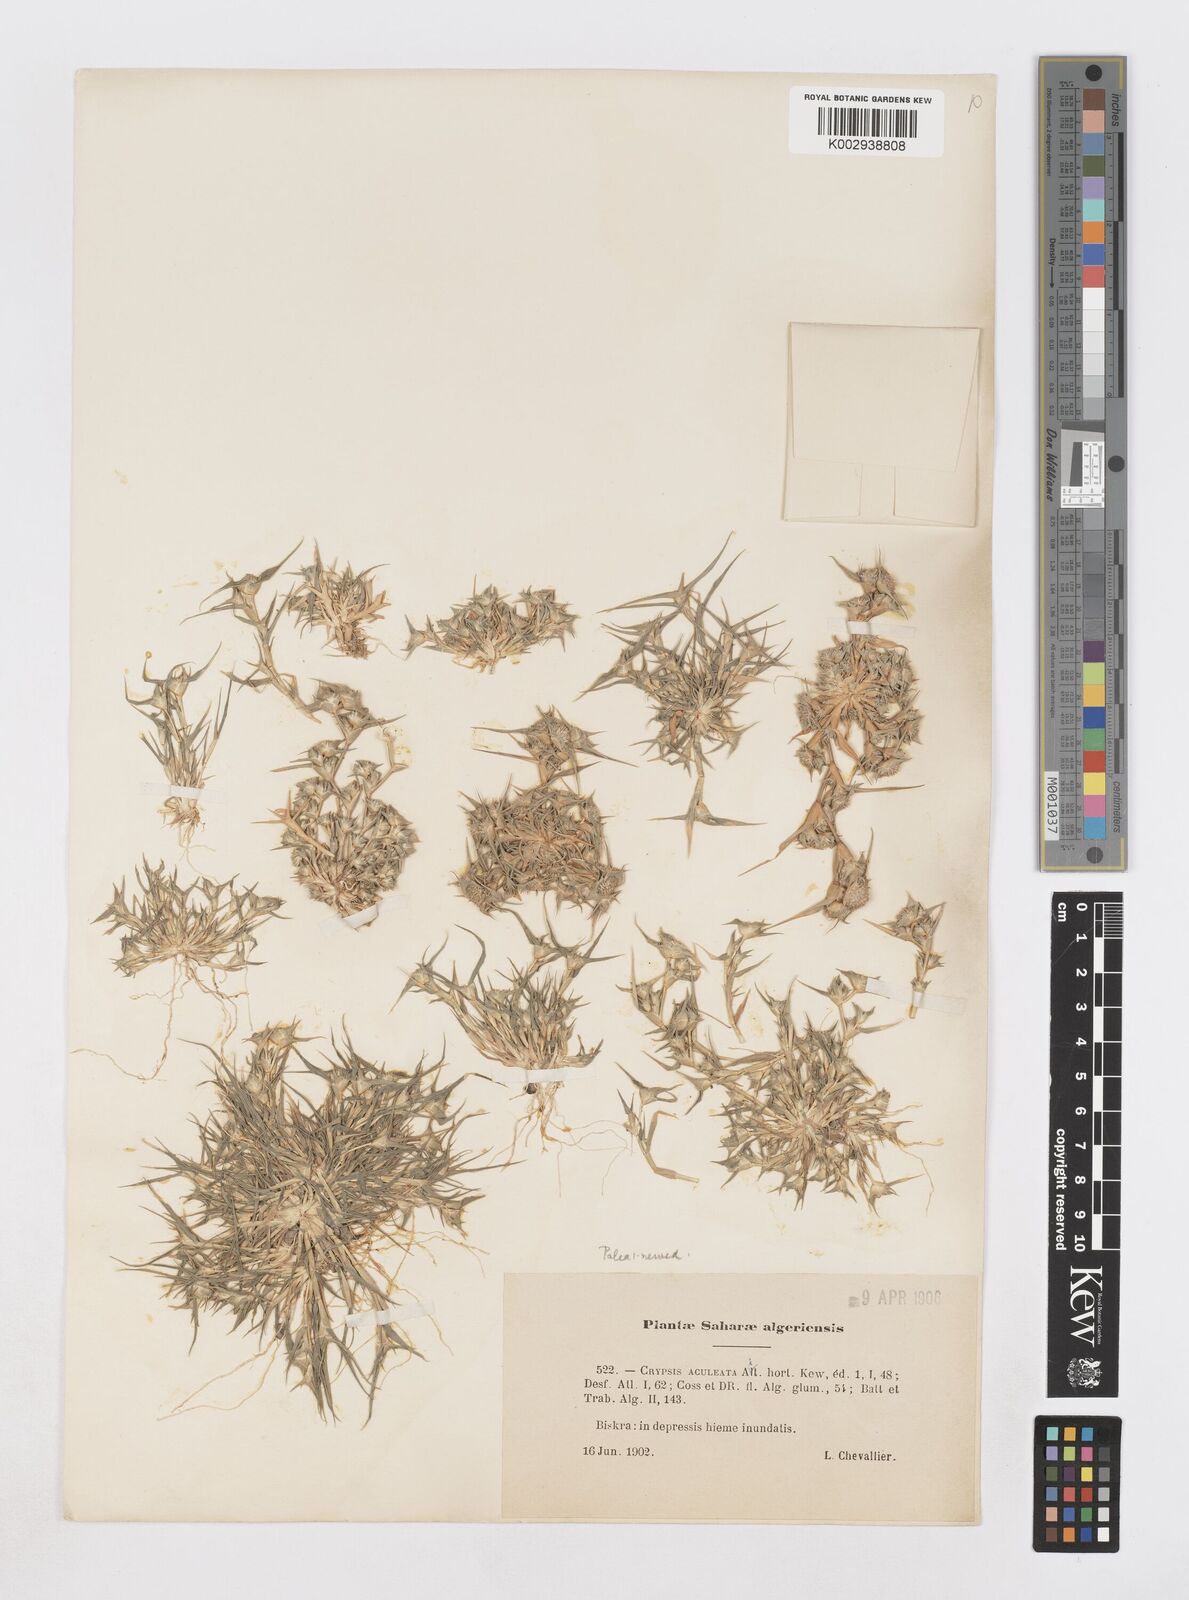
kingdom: Plantae
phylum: Tracheophyta
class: Liliopsida
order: Poales
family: Poaceae
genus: Sporobolus
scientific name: Sporobolus aculeatus
